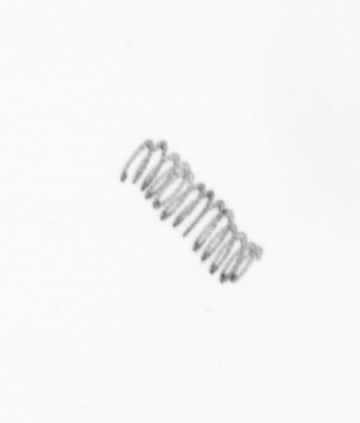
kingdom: Chromista
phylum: Ochrophyta
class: Bacillariophyceae
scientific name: Bacillariophyceae
